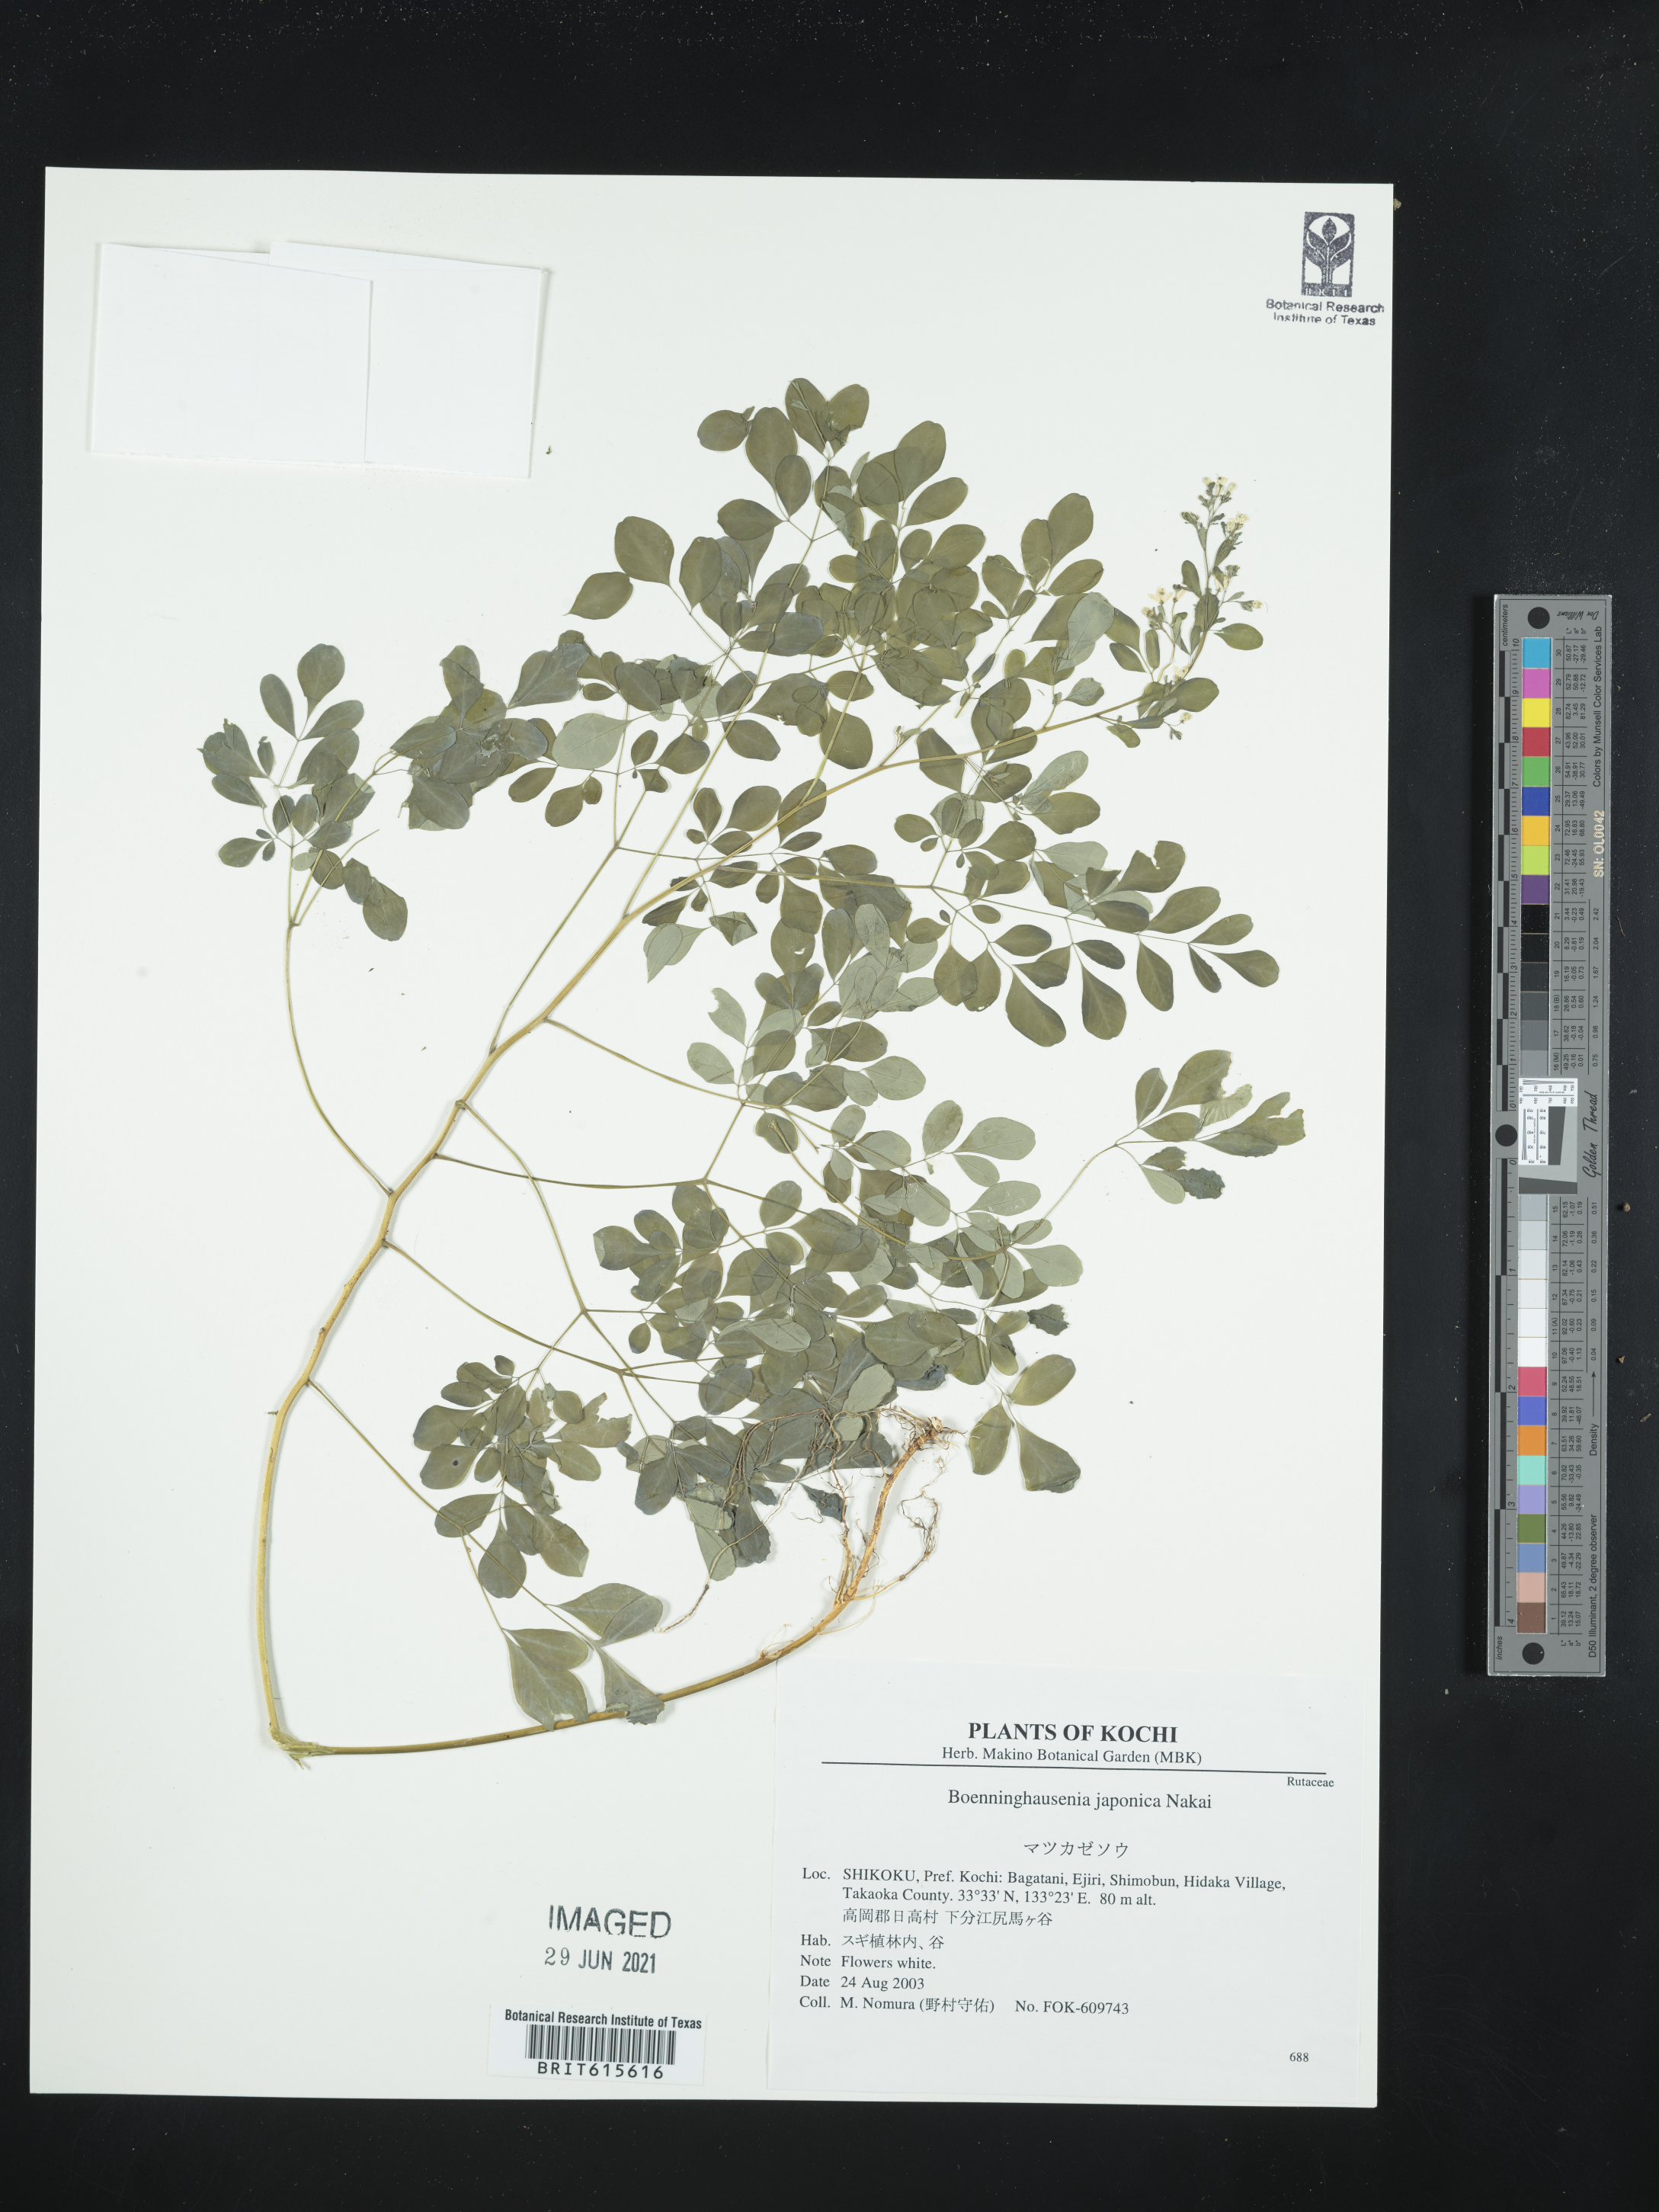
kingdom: Plantae
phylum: Tracheophyta
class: Magnoliopsida
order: Sapindales
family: Rutaceae
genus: Boenninghausenia
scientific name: Boenninghausenia albiflora
